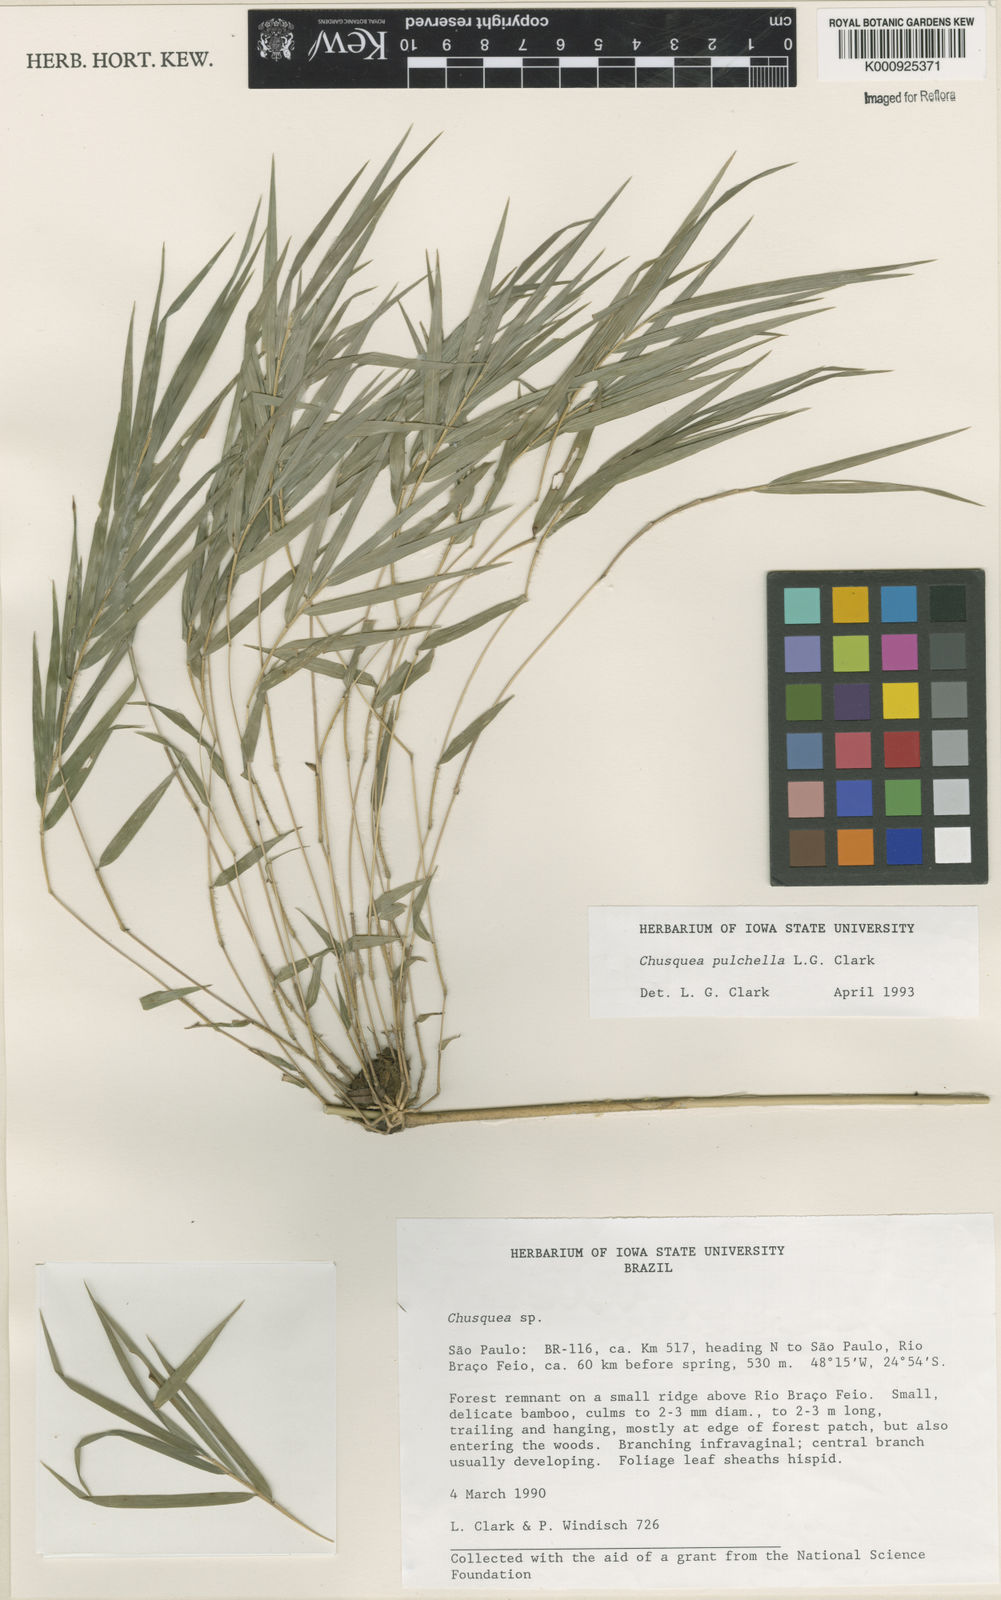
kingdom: Plantae
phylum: Tracheophyta
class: Liliopsida
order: Poales
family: Poaceae
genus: Chusquea
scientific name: Chusquea pulchella
